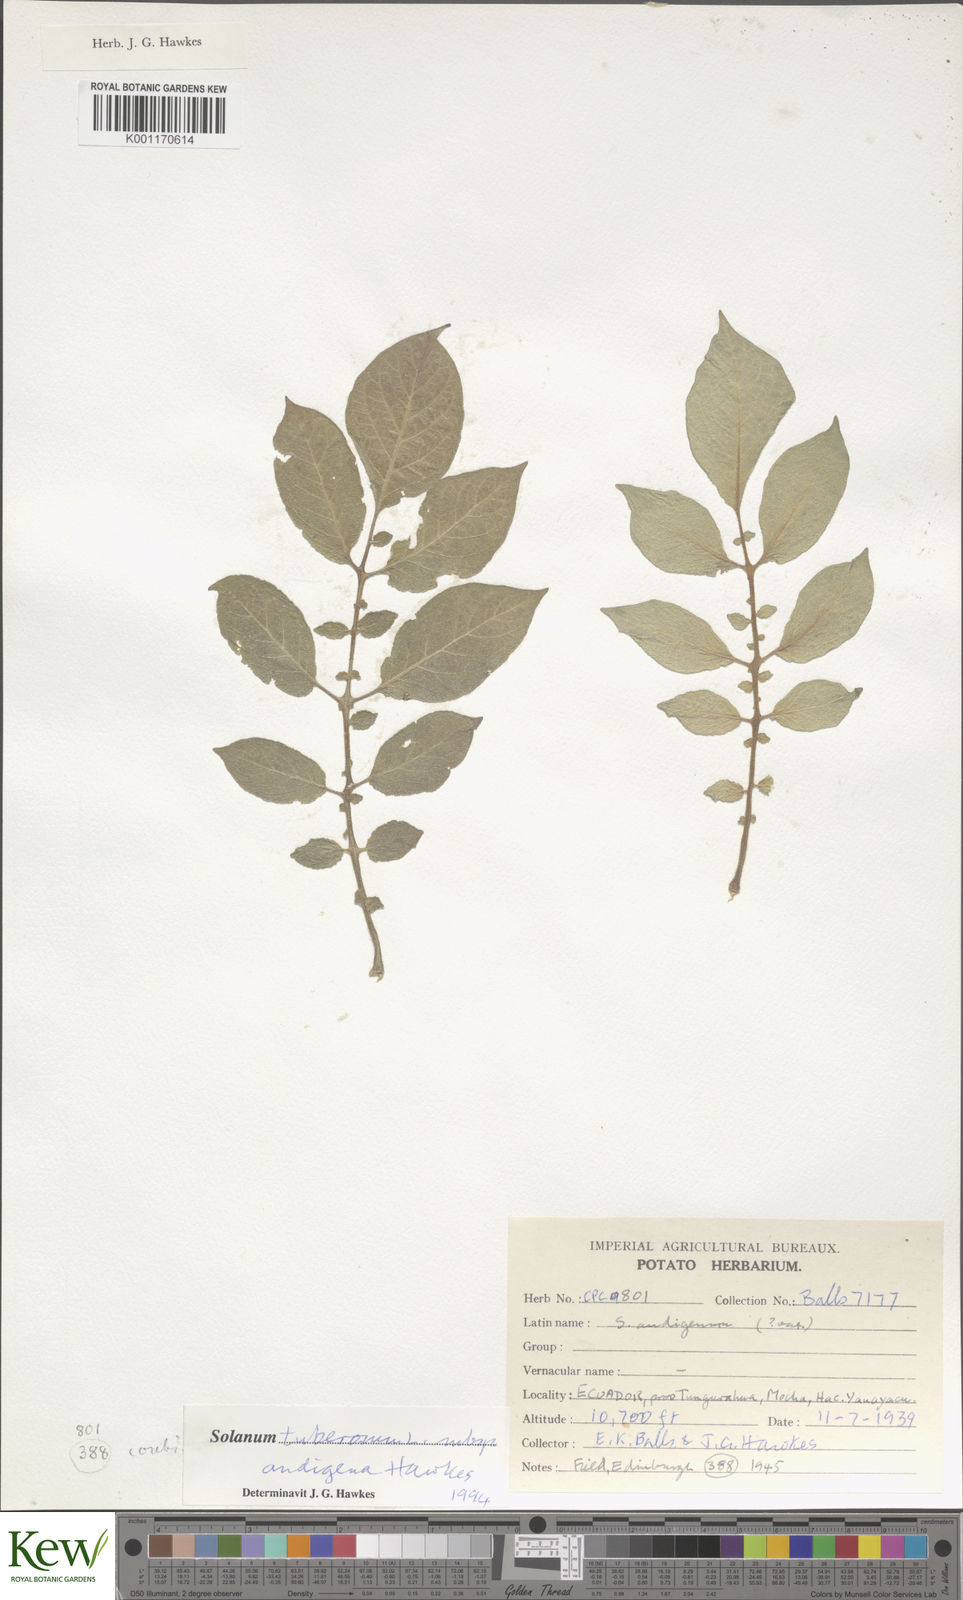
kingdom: Plantae
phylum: Tracheophyta
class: Magnoliopsida
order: Solanales
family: Solanaceae
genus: Solanum
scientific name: Solanum tuberosum
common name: Potato
